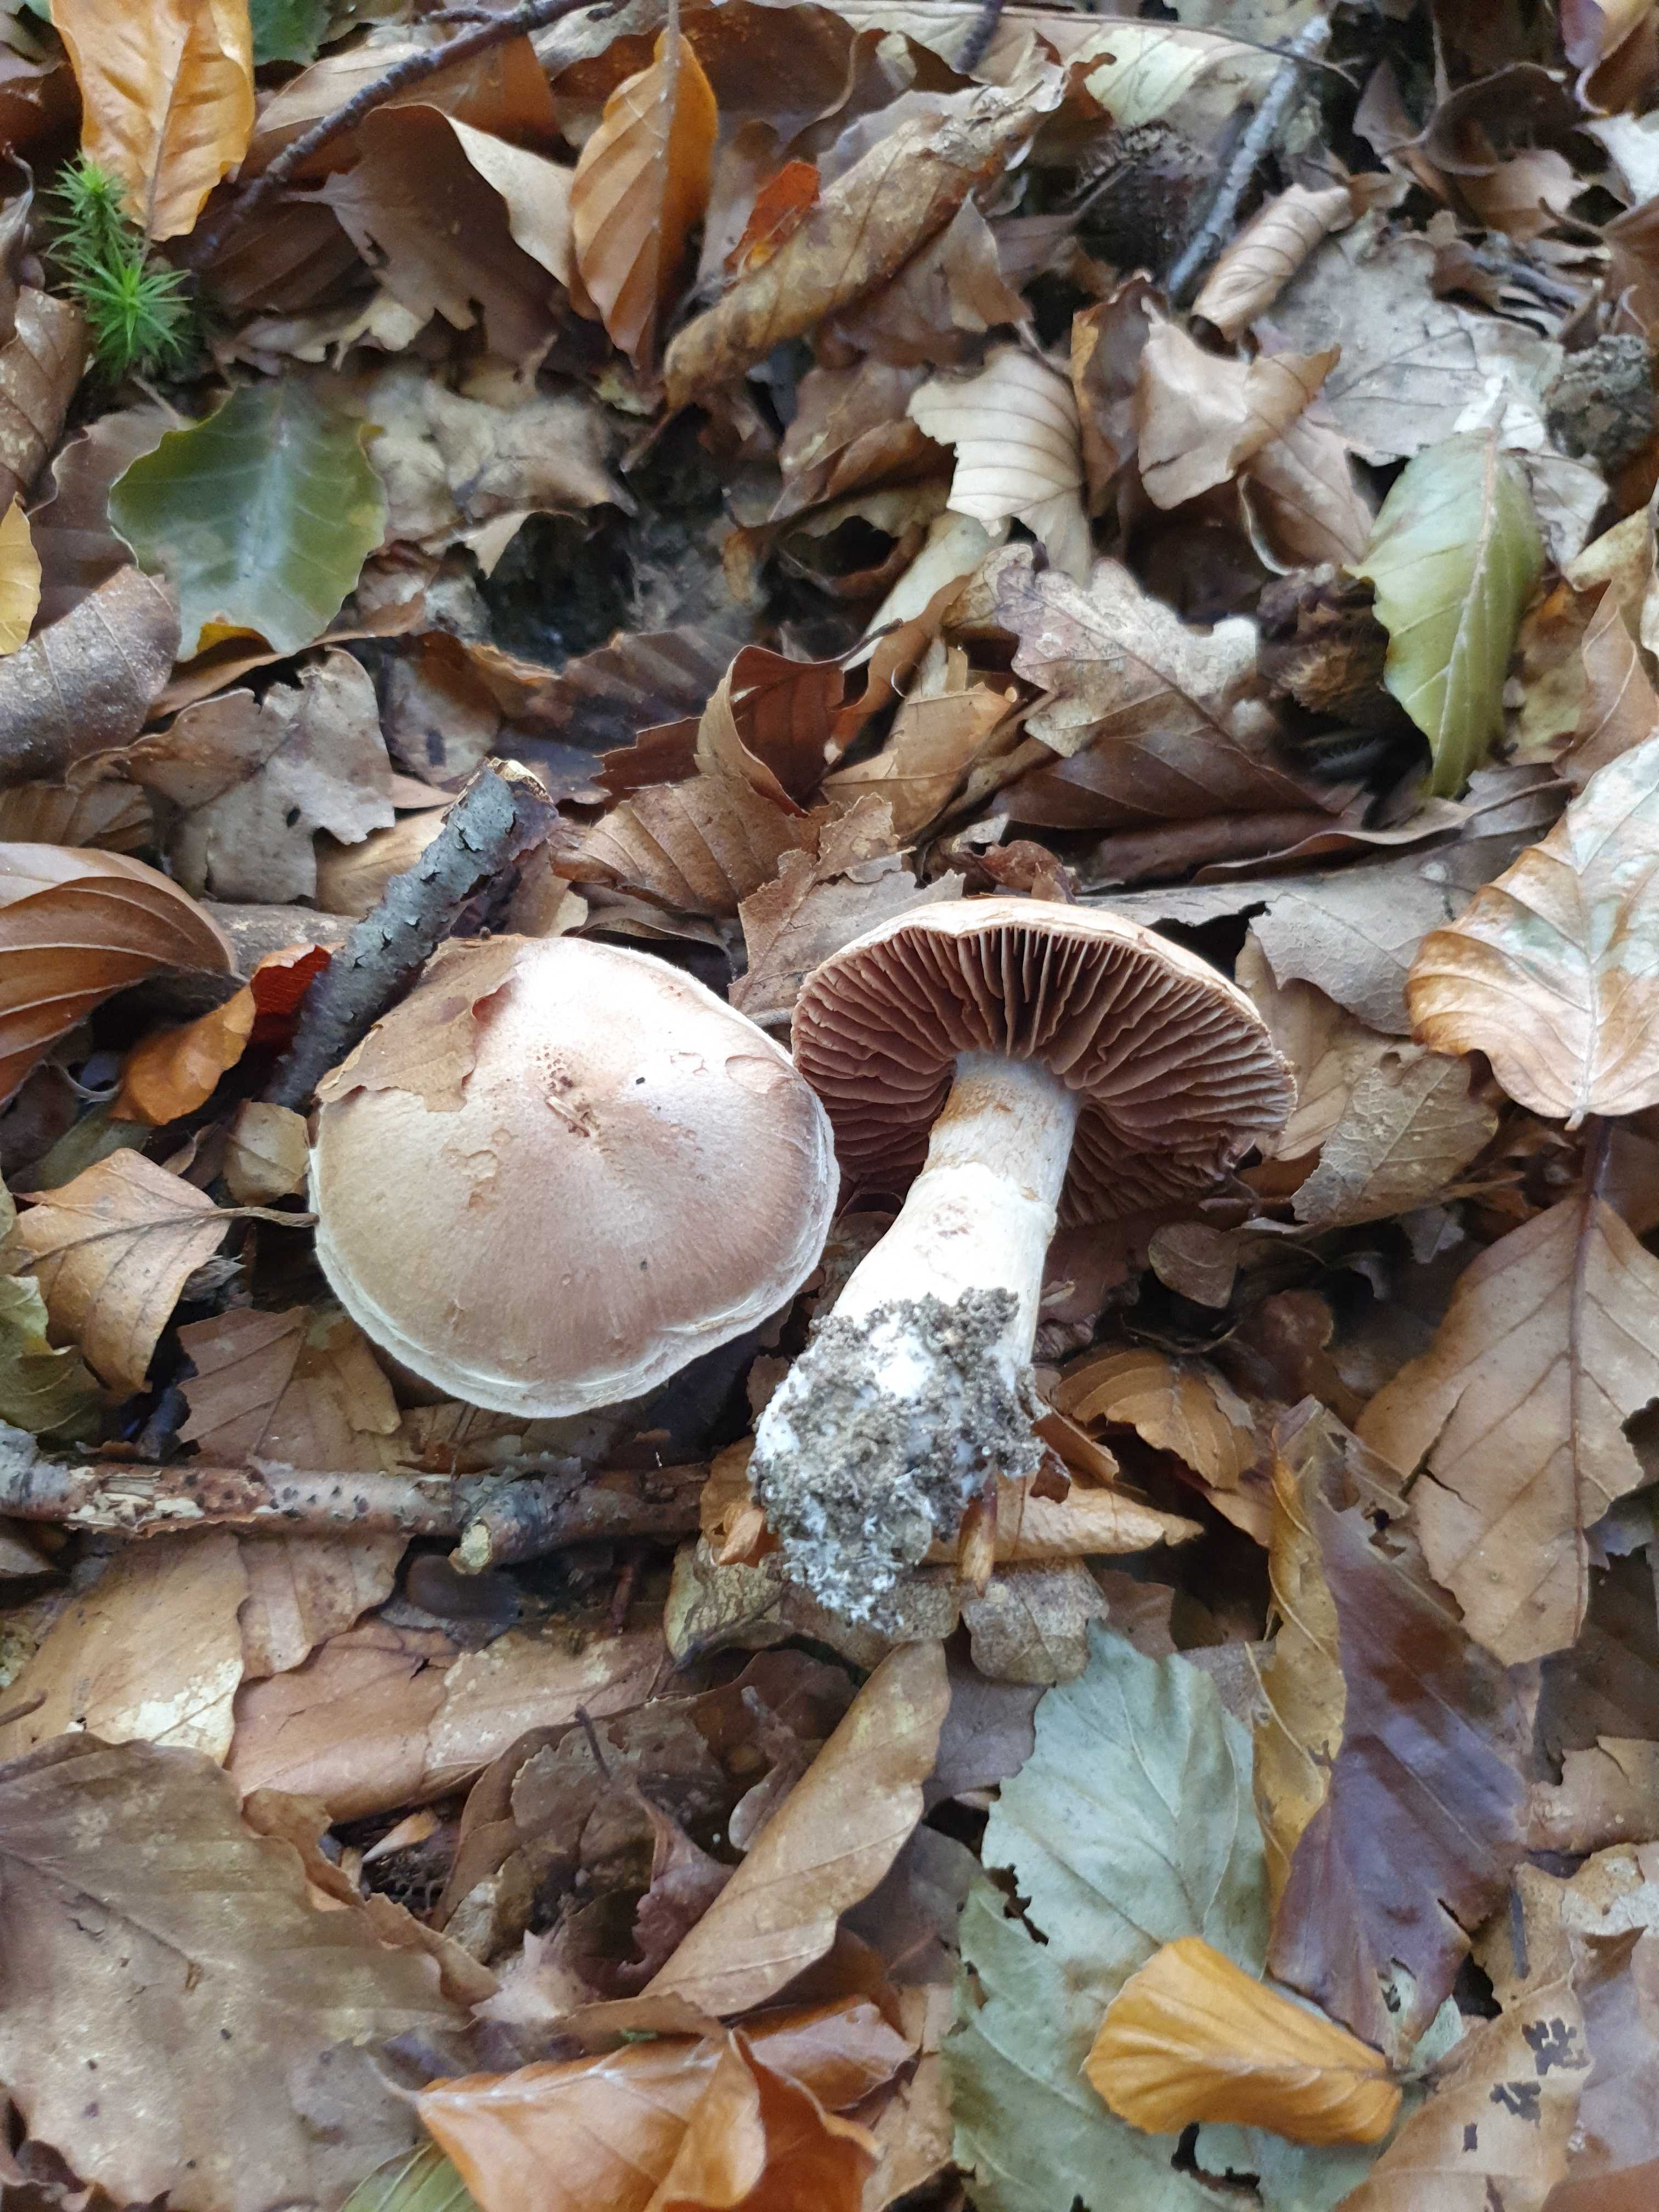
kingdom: Fungi
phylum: Basidiomycota
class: Agaricomycetes
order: Agaricales
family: Cortinariaceae
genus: Cortinarius
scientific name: Cortinarius torvus
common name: champignonagtig slørhat
